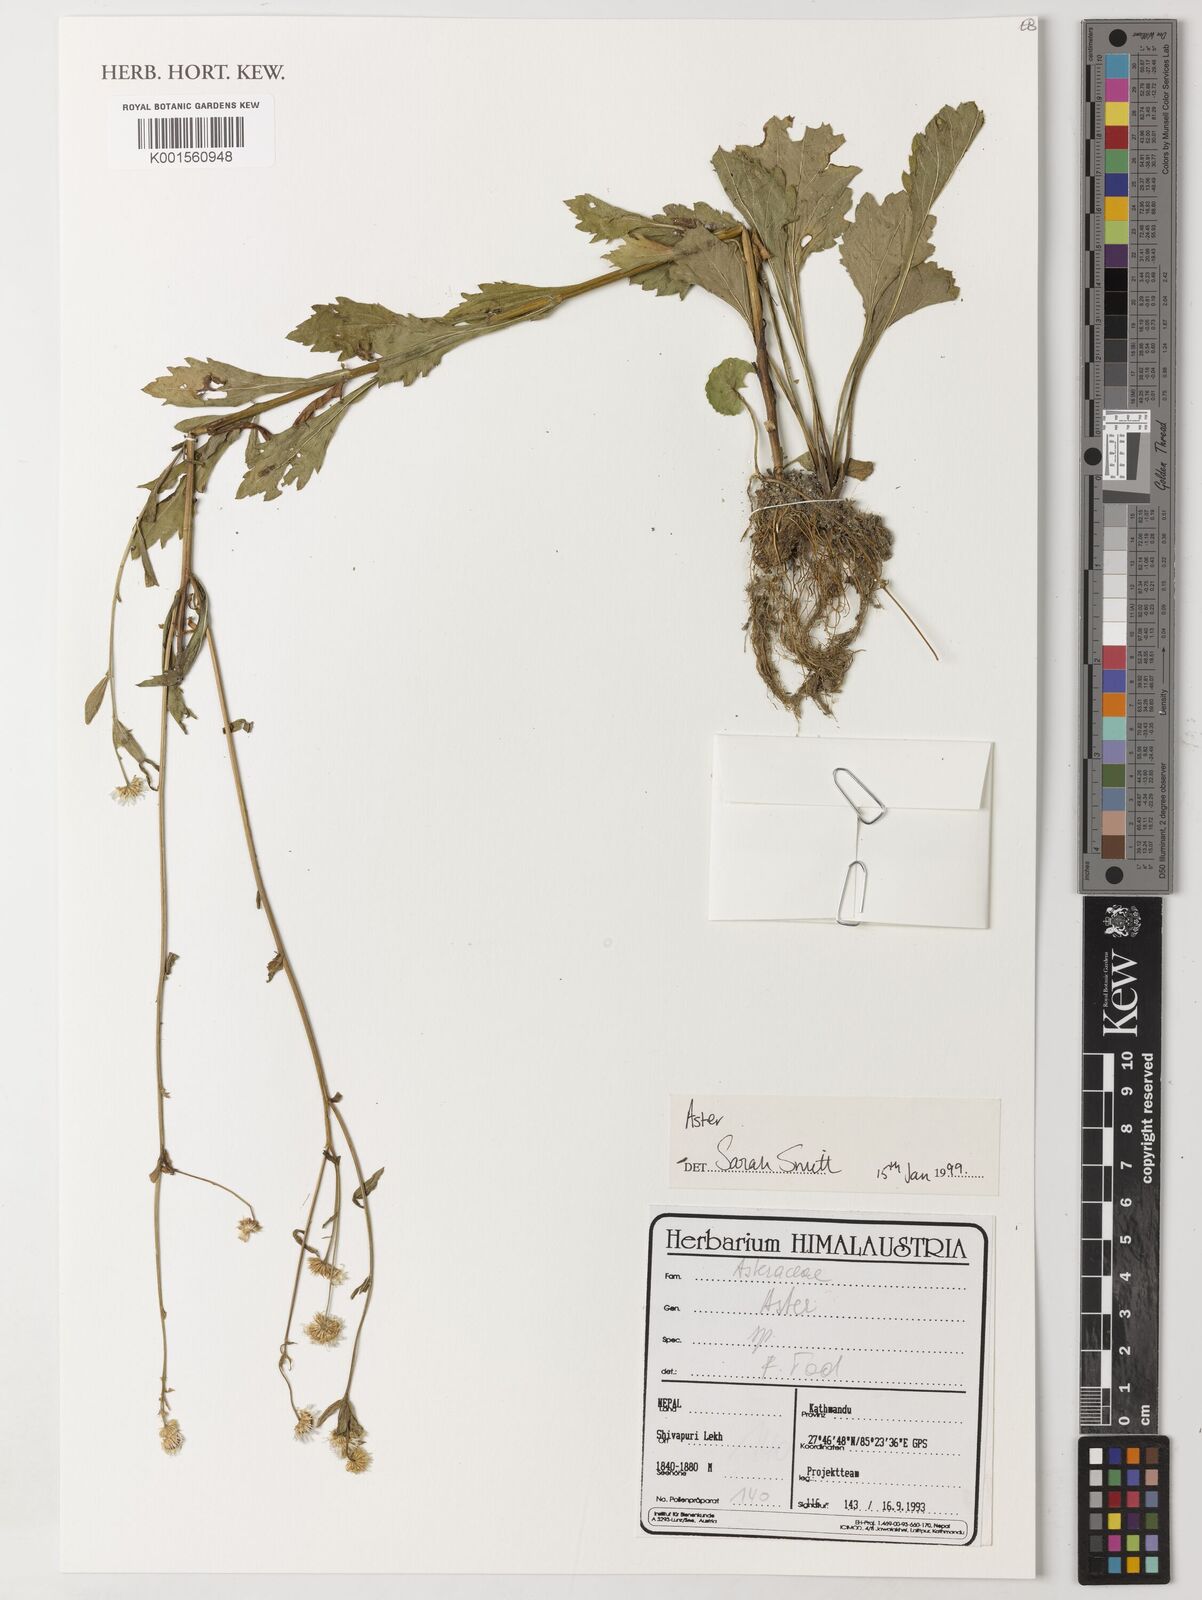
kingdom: Plantae
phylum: Tracheophyta
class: Magnoliopsida
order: Asterales
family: Asteraceae
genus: Aster
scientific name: Aster
